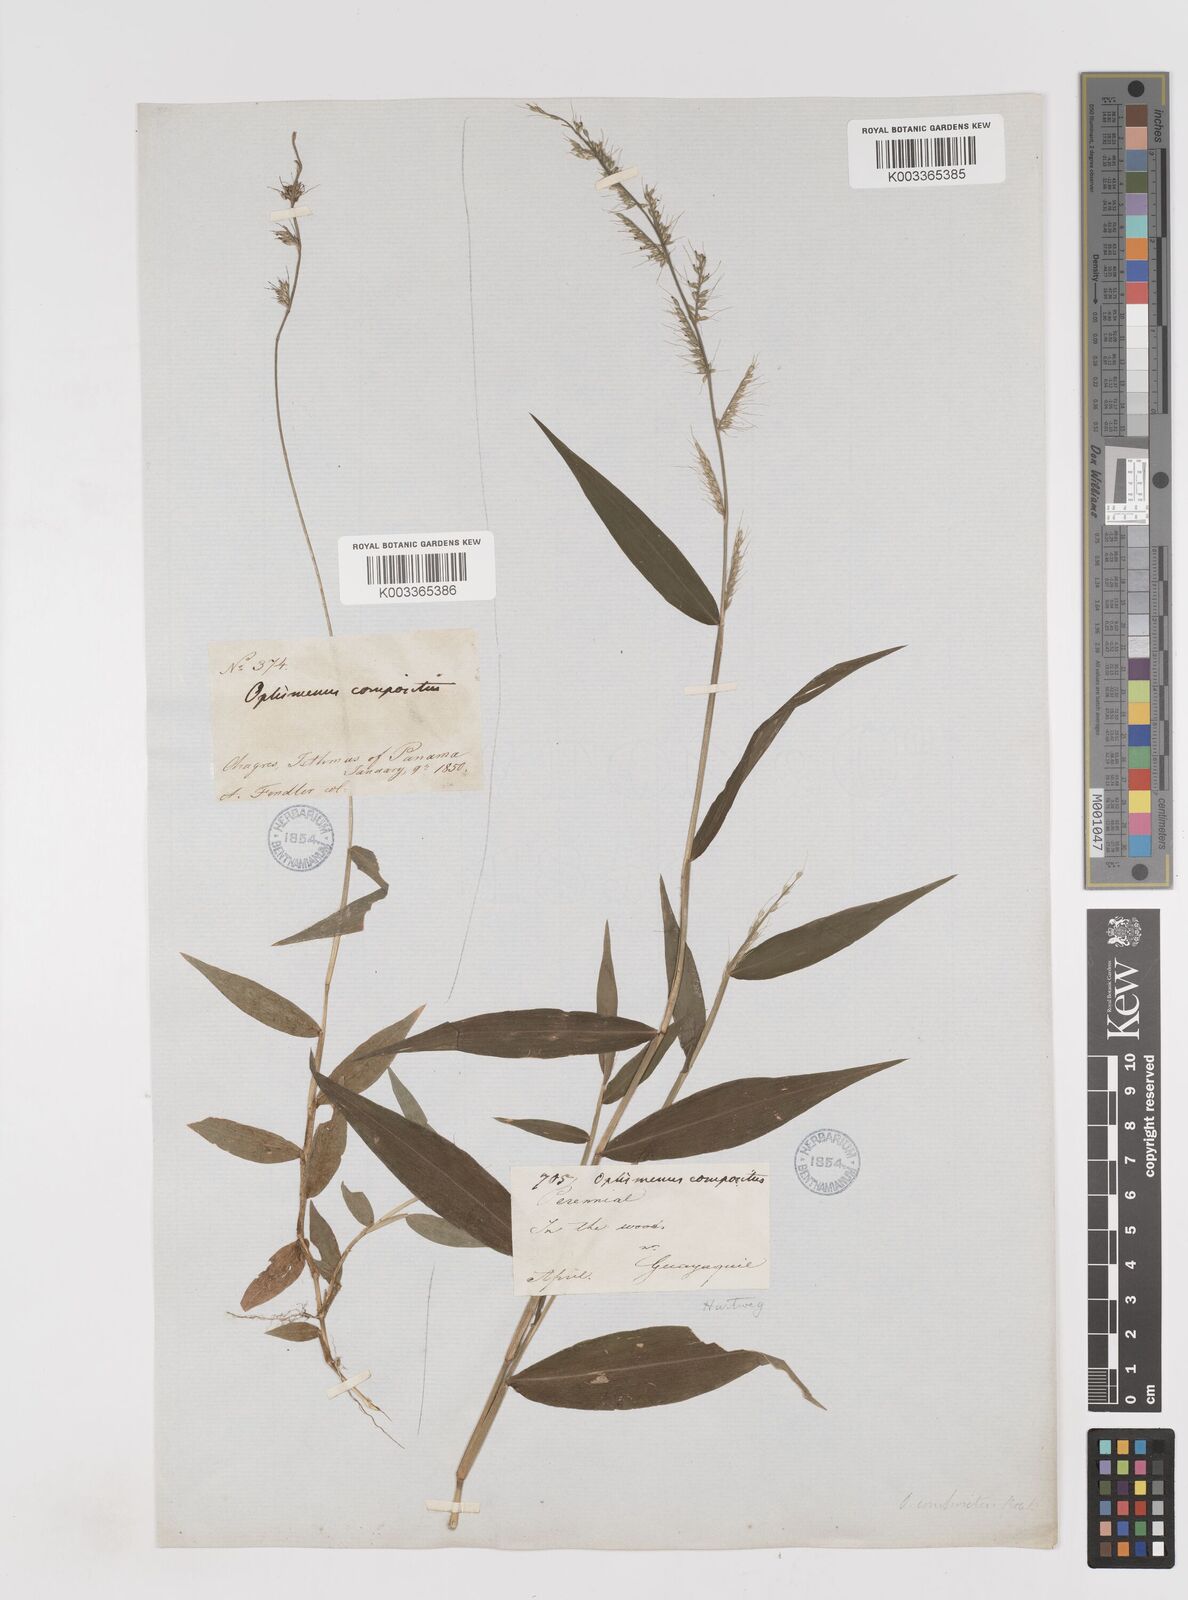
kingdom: Plantae
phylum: Tracheophyta
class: Liliopsida
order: Poales
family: Poaceae
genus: Oplismenus
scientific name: Oplismenus hirtellus
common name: Basketgrass
